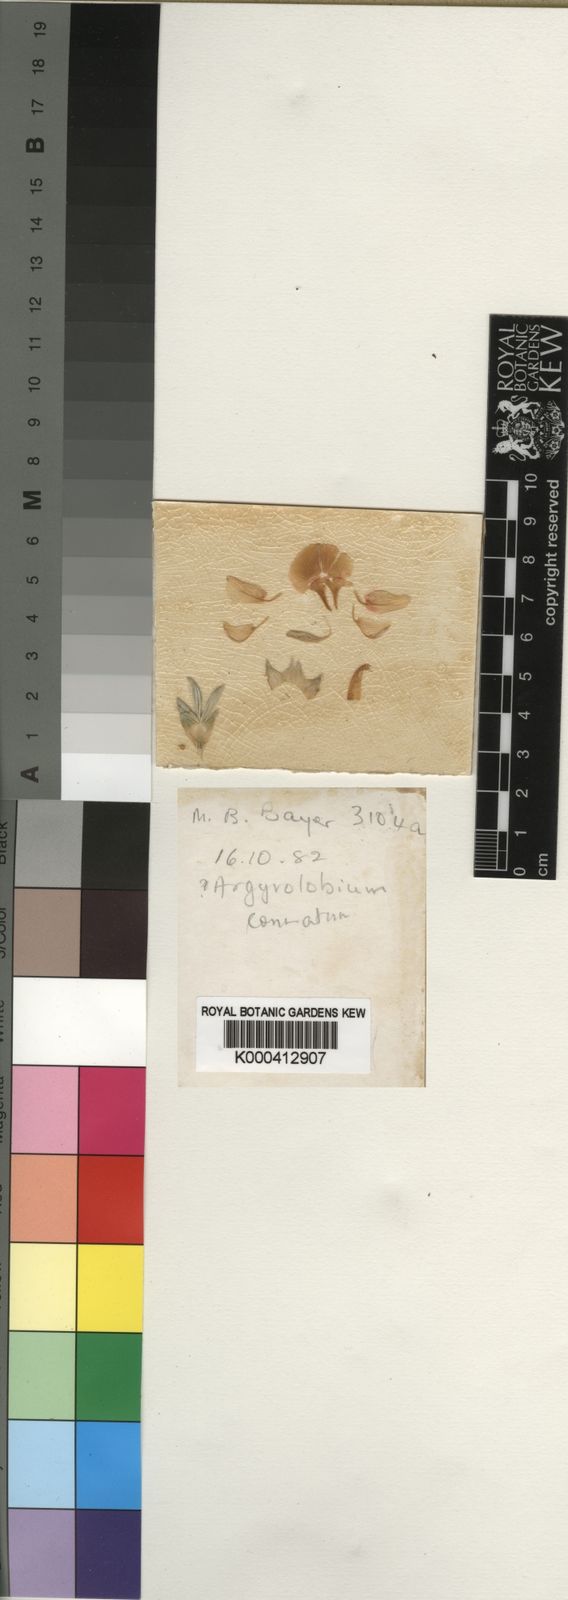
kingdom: Plantae
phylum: Tracheophyta
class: Magnoliopsida
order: Fabales
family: Fabaceae
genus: Polhillia
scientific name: Polhillia connata
